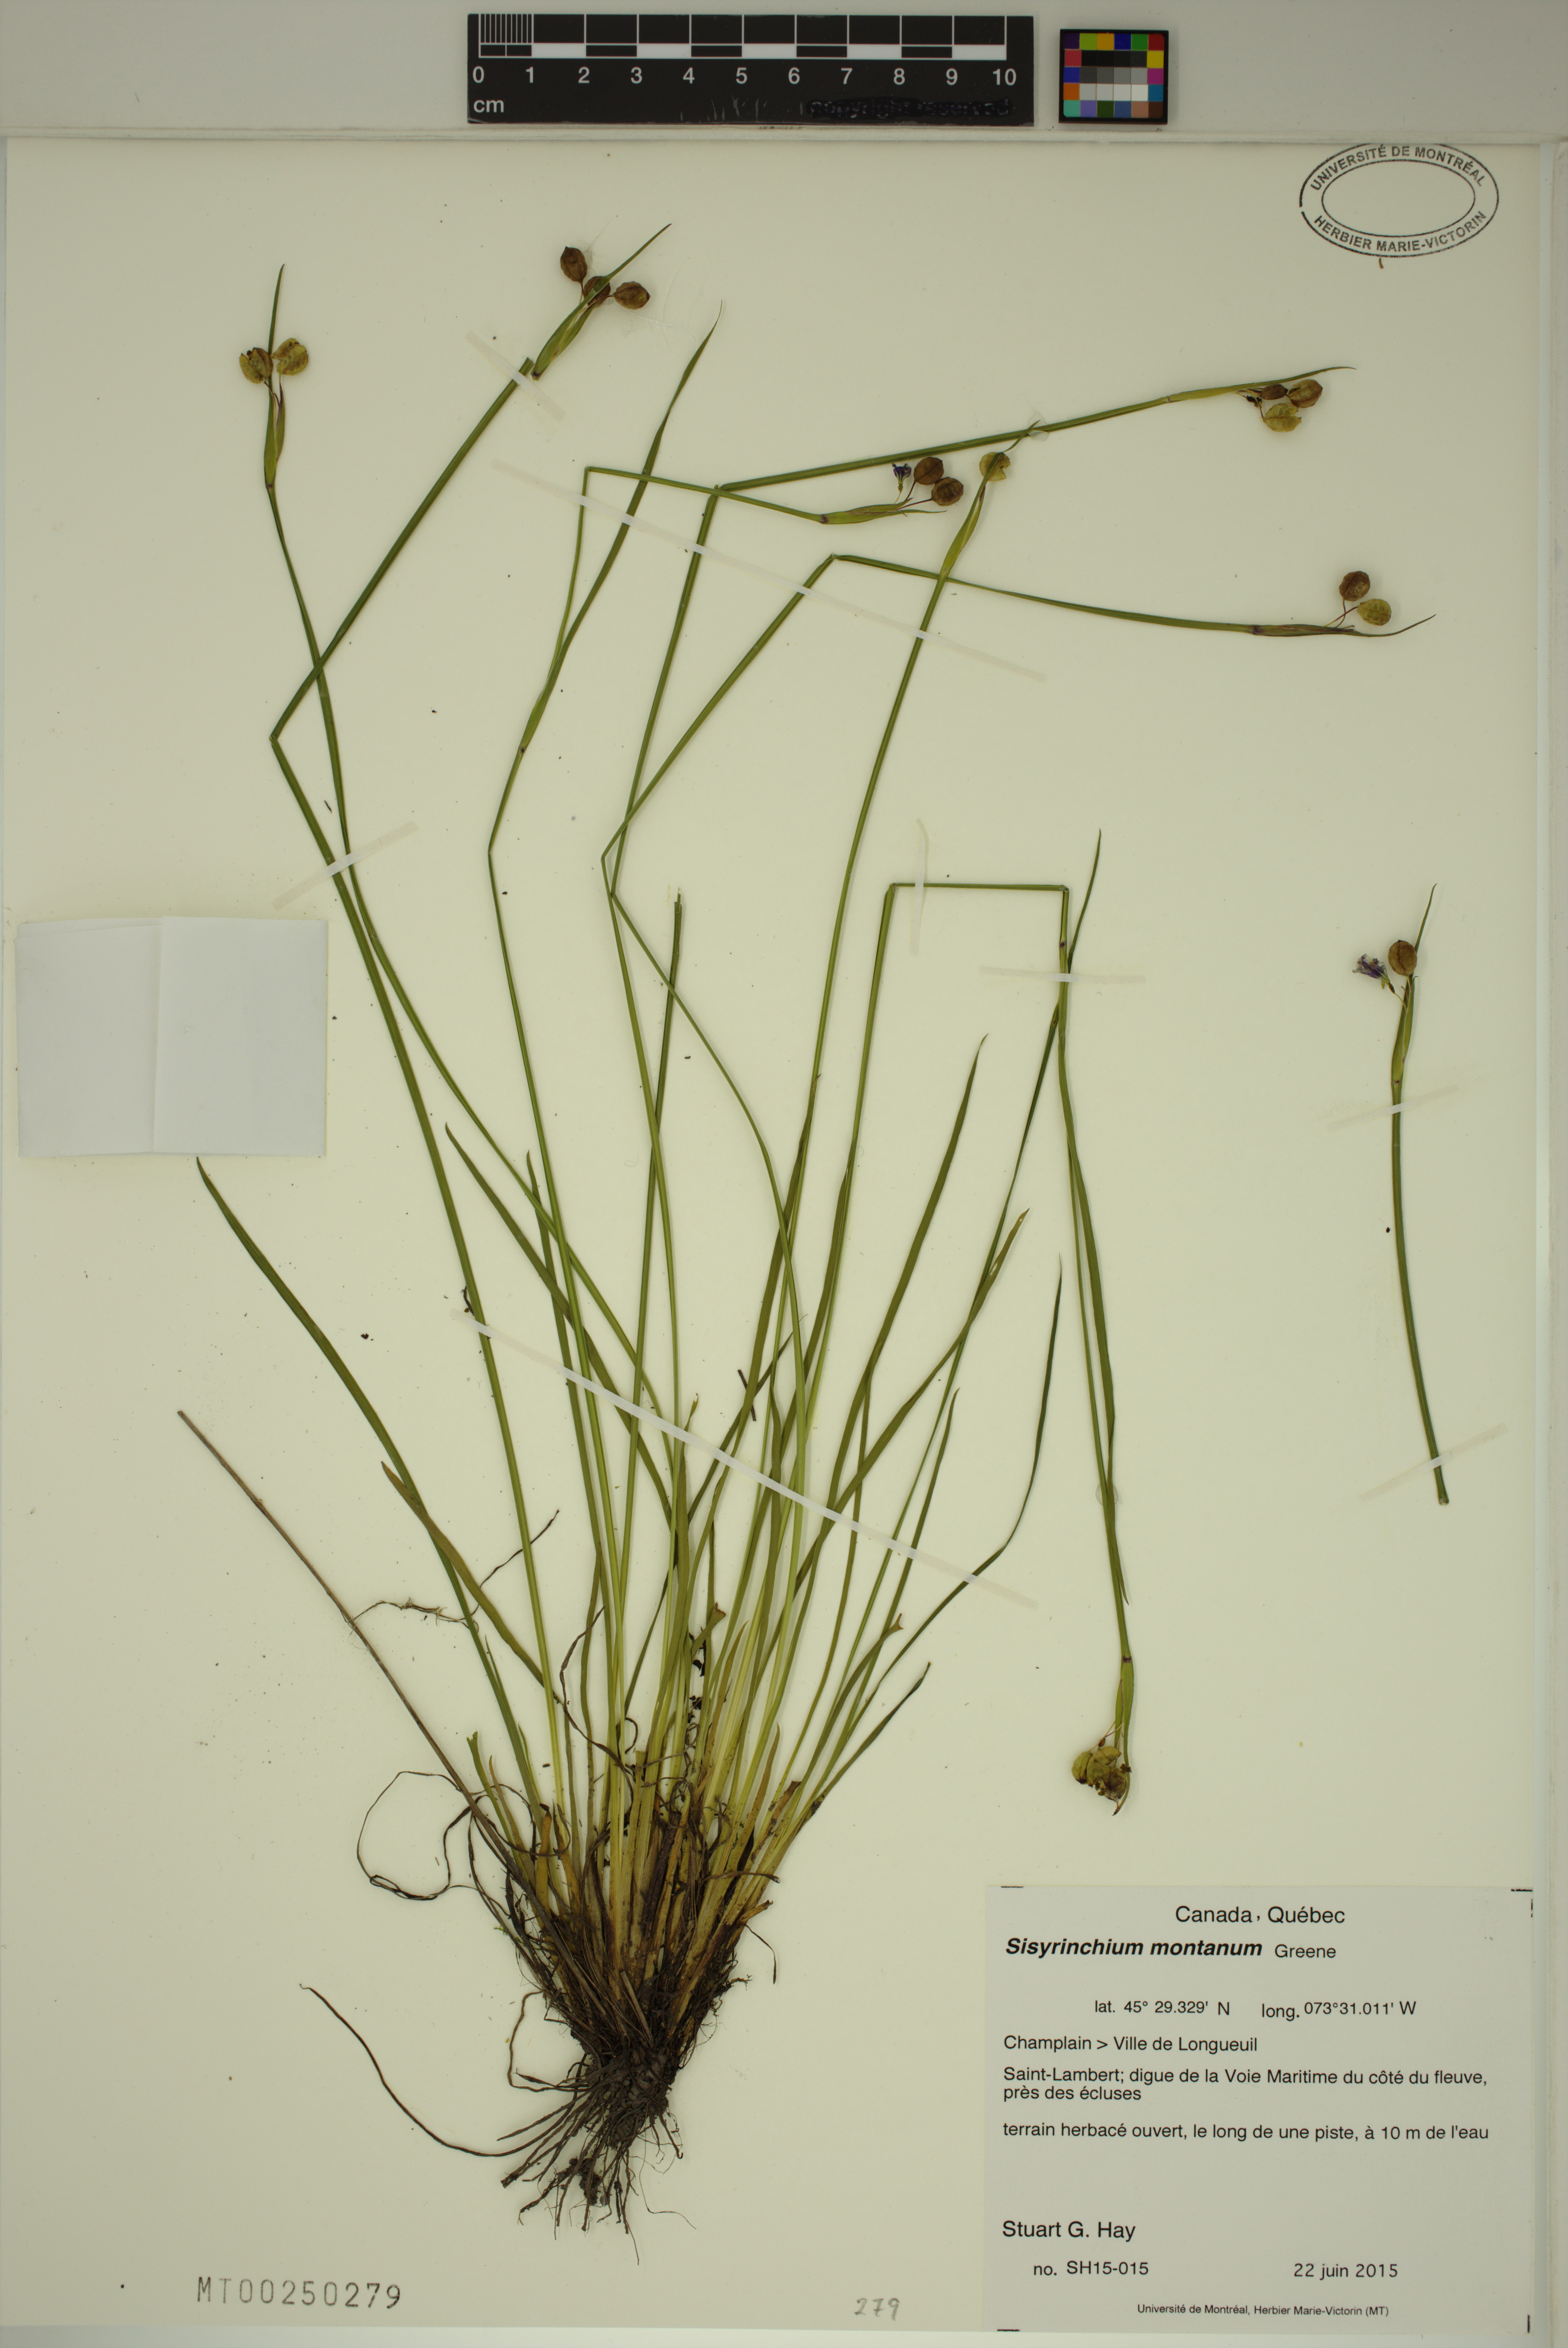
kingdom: Plantae
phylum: Tracheophyta
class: Liliopsida
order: Asparagales
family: Iridaceae
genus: Sisyrinchium
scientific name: Sisyrinchium montanum
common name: American blue-eyed-grass
